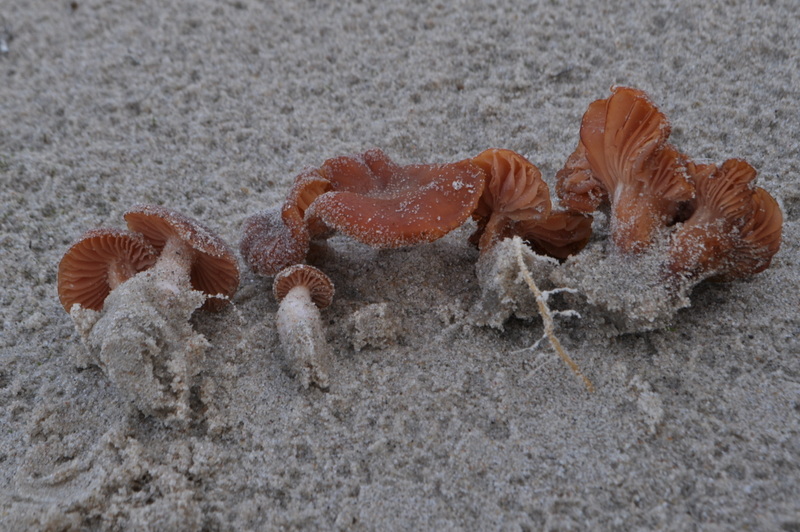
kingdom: Fungi
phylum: Basidiomycota
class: Agaricomycetes
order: Agaricales
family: Hydnangiaceae
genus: Laccaria
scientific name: Laccaria maritima
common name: klit-ametysthat
